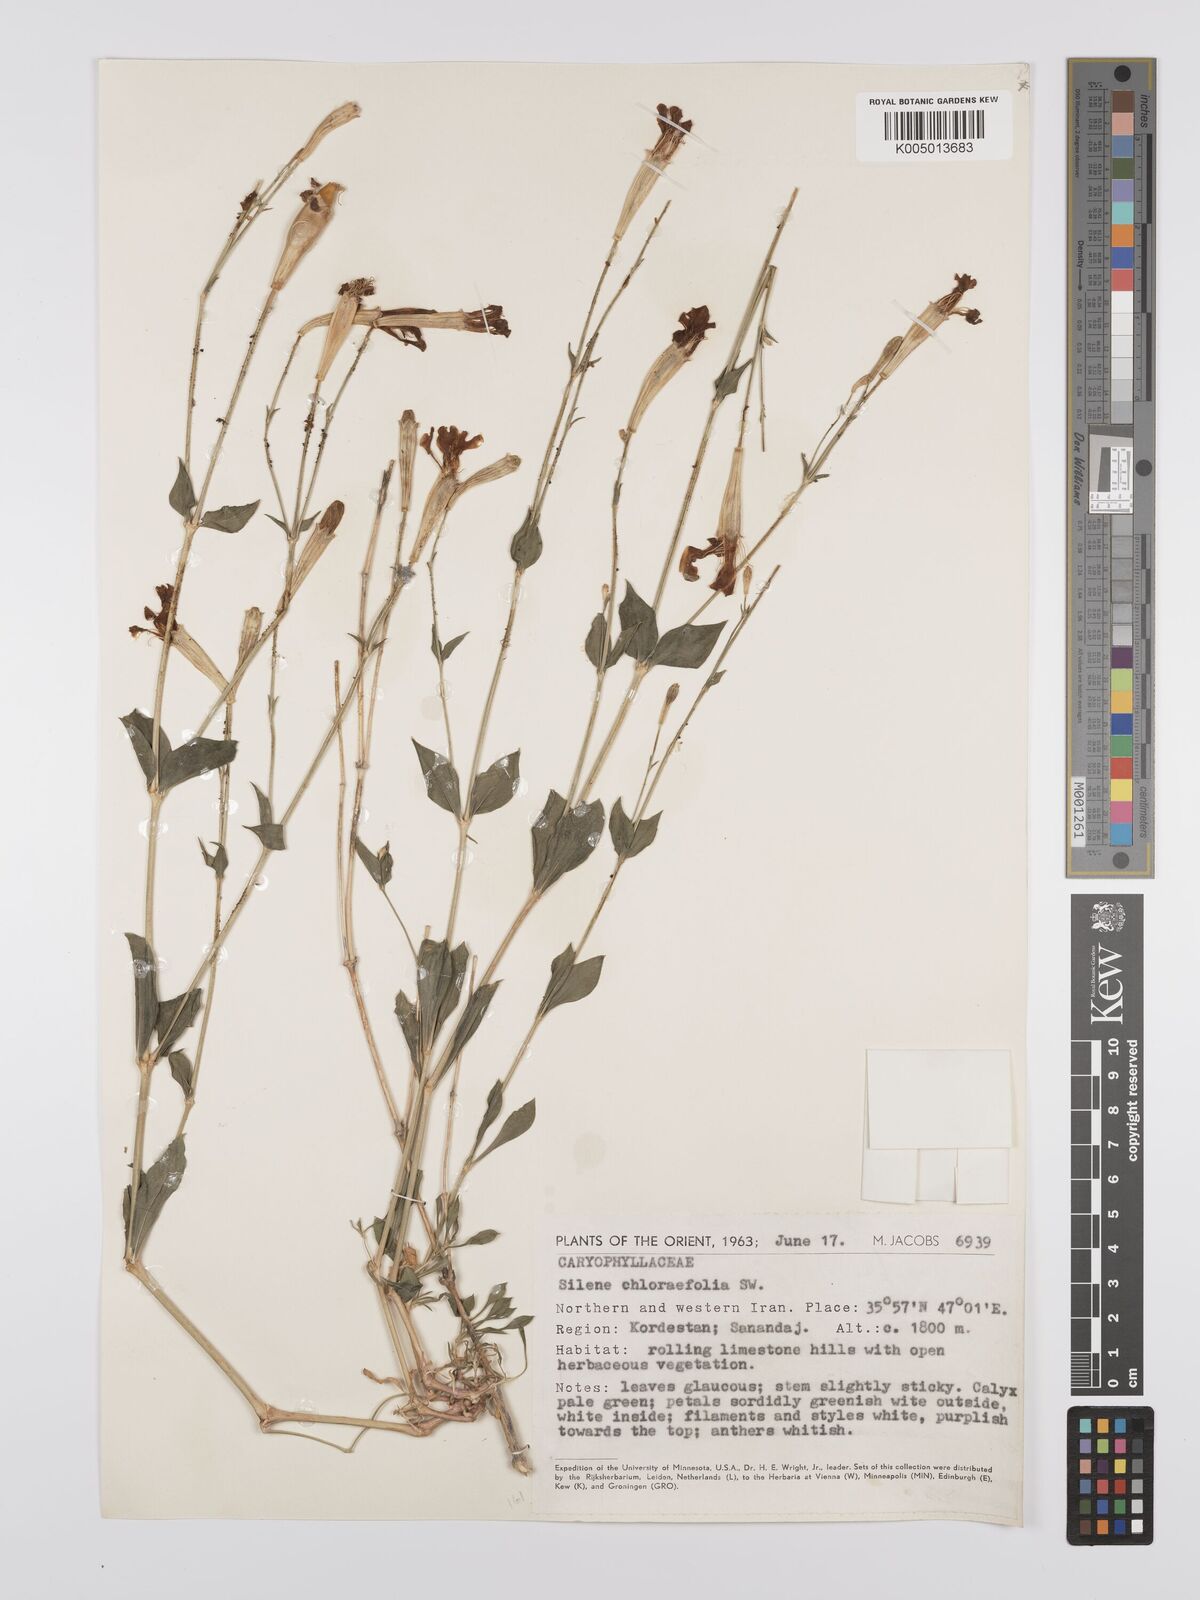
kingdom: Plantae
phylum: Tracheophyta
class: Magnoliopsida
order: Caryophyllales
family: Caryophyllaceae
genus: Silene
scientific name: Silene chlorifolia
